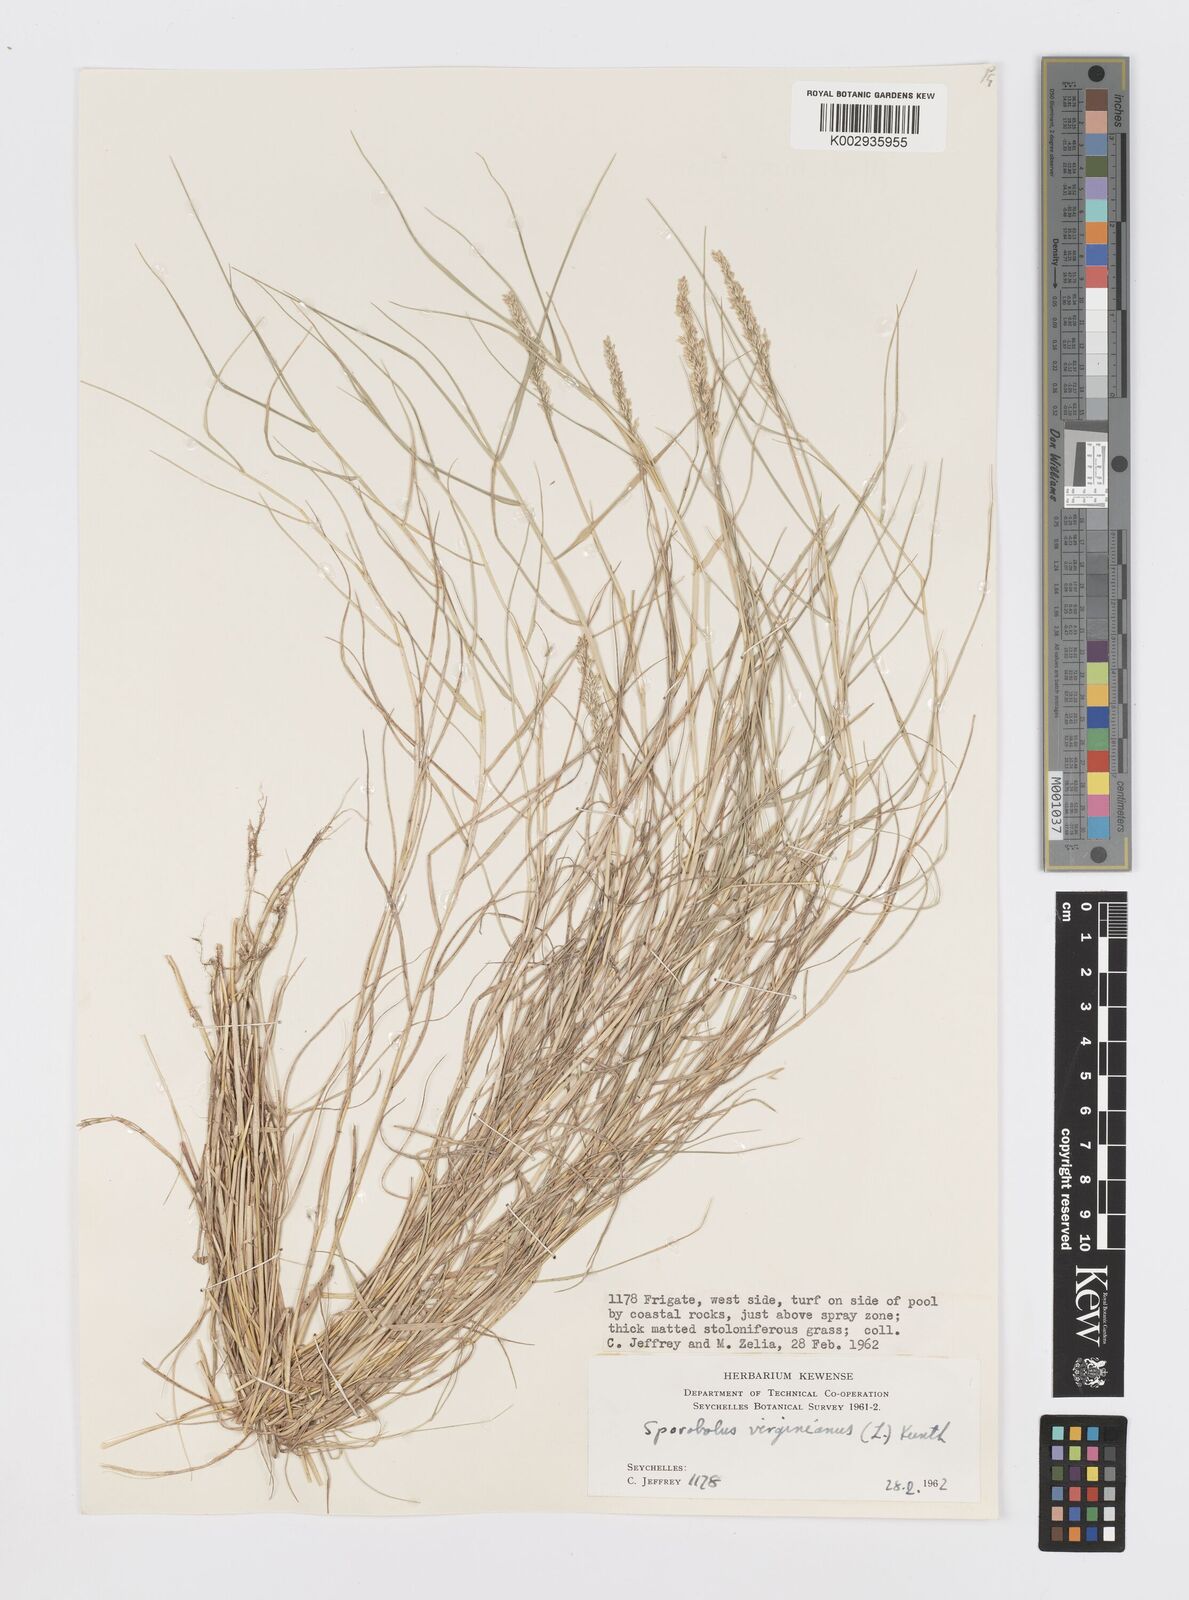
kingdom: Plantae
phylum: Tracheophyta
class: Liliopsida
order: Poales
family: Poaceae
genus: Sporobolus
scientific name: Sporobolus virginicus
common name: Beach dropseed
